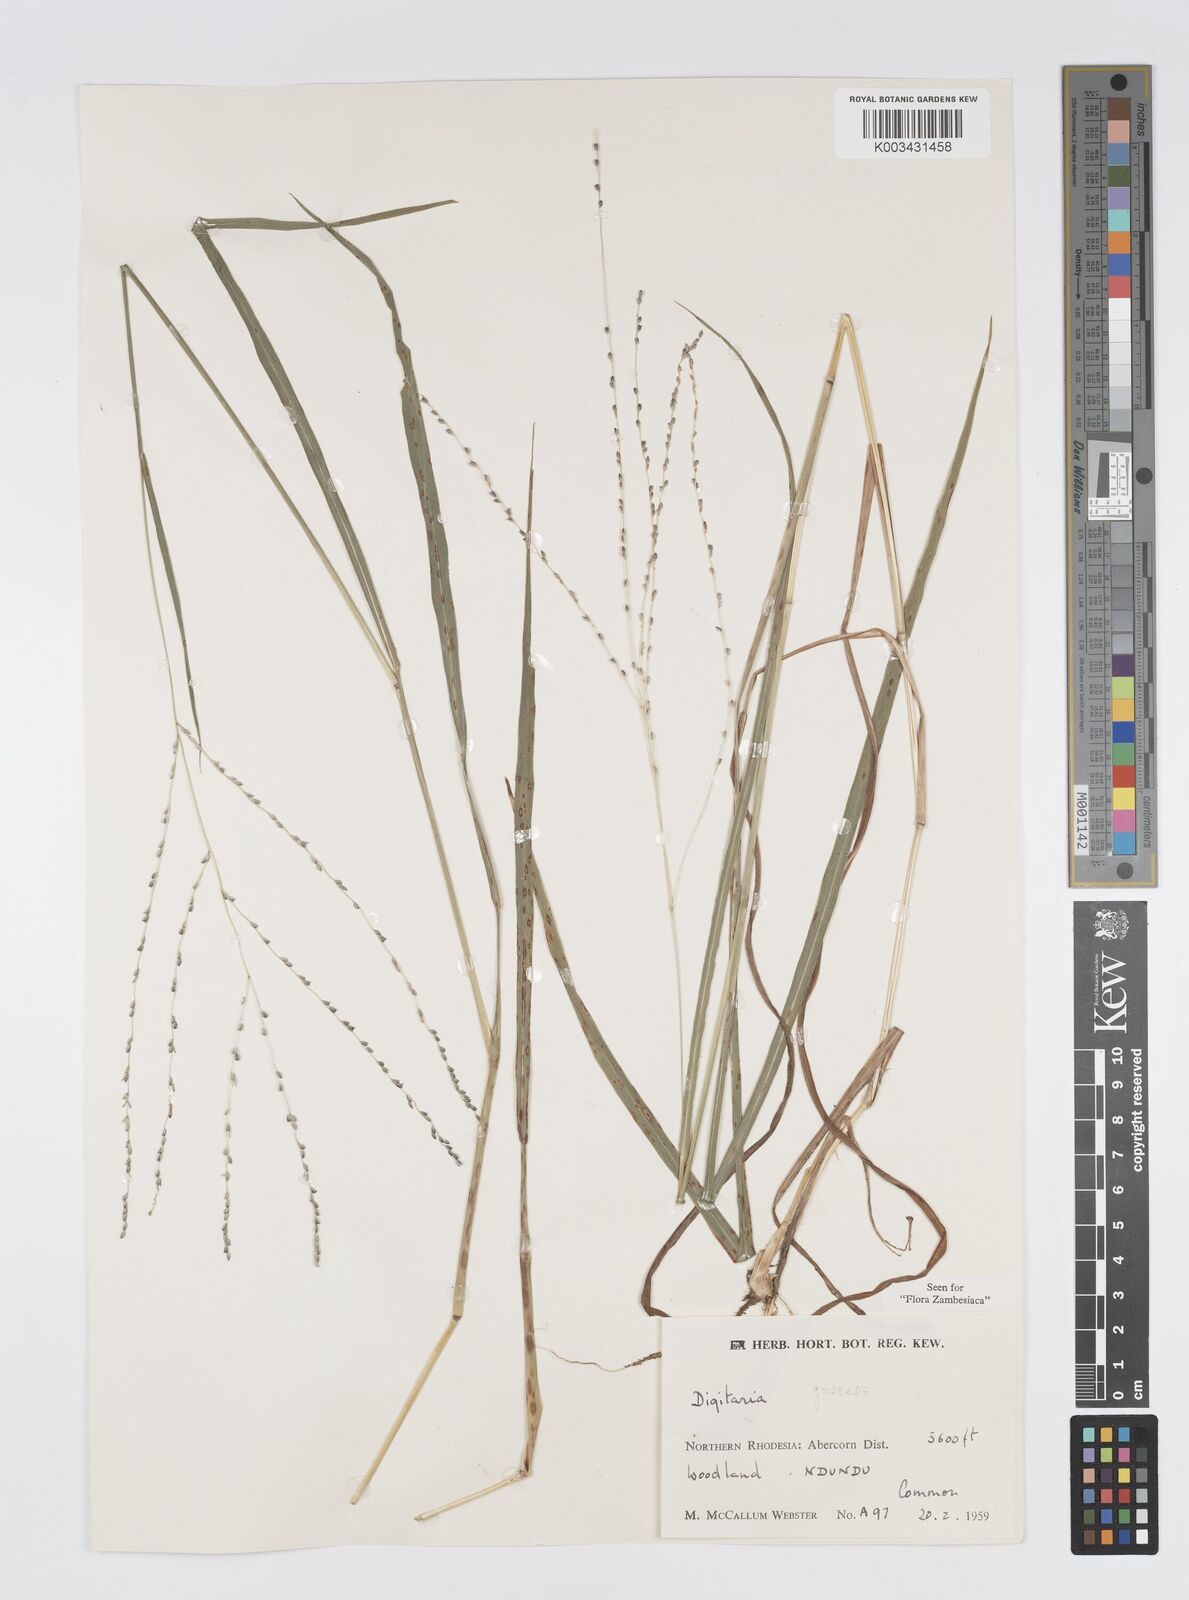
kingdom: Plantae
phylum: Tracheophyta
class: Liliopsida
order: Poales
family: Poaceae
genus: Digitaria
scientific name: Digitaria gazensis
